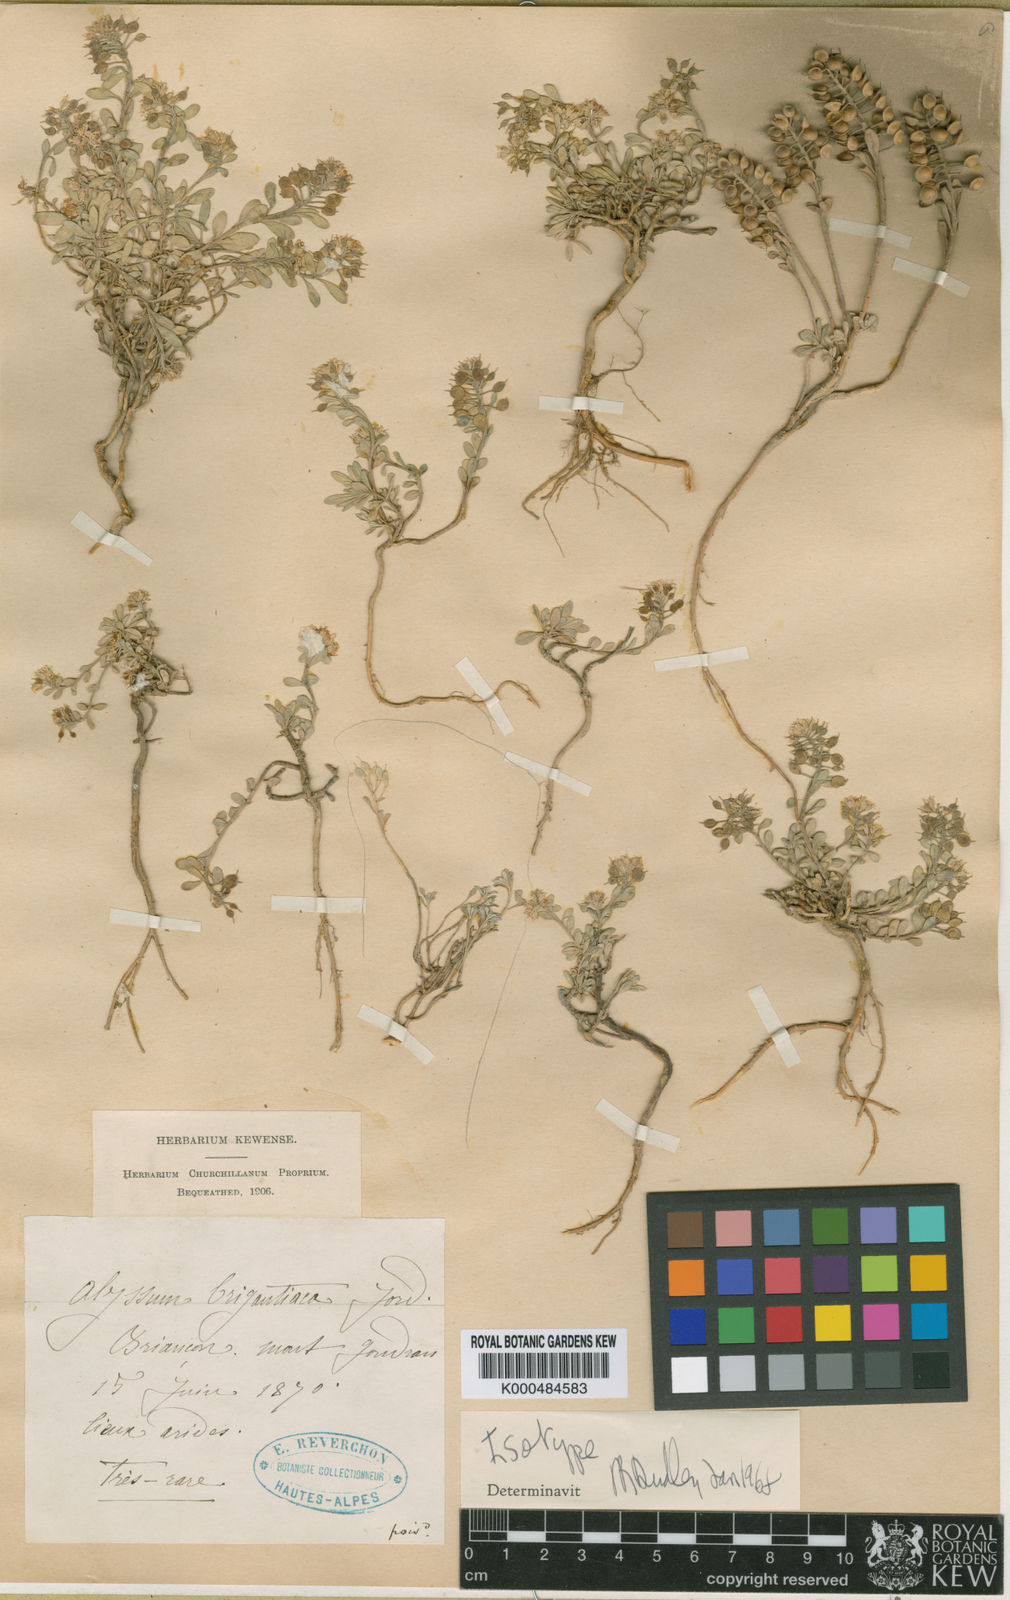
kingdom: Plantae
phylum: Tracheophyta
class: Magnoliopsida
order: Brassicales
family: Brassicaceae
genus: Alyssum
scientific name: Alyssum cuneifolium
